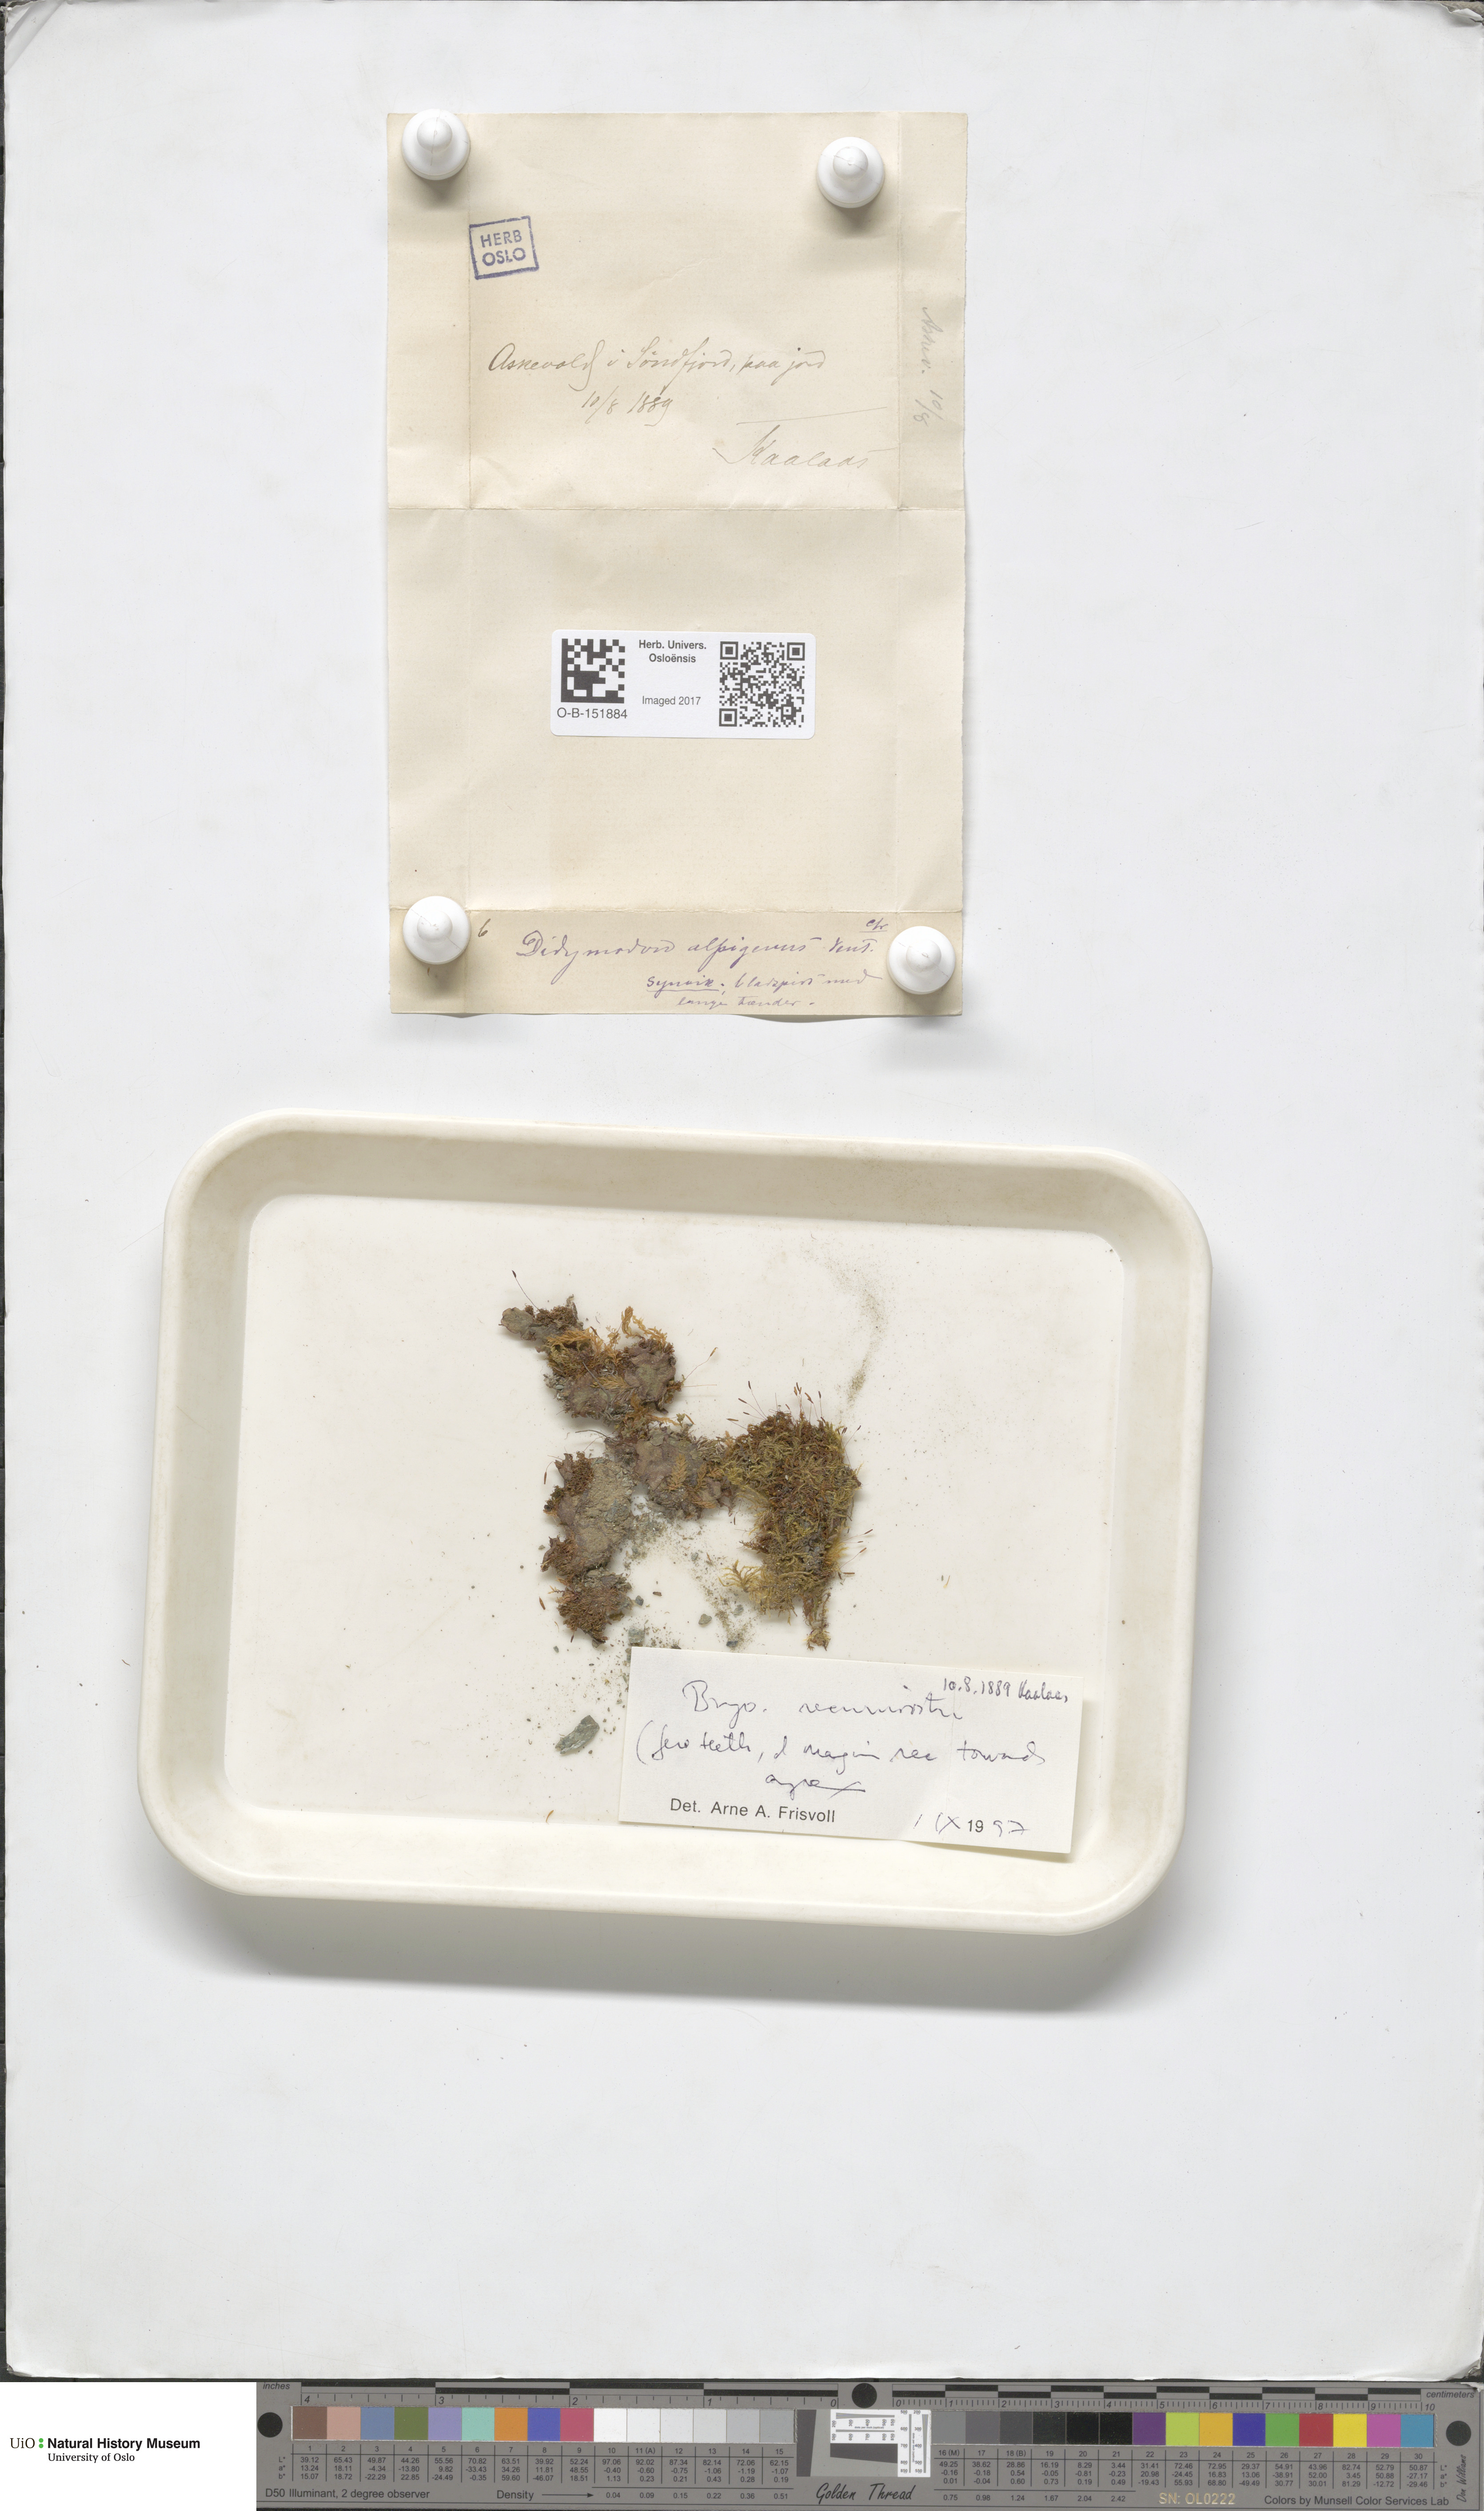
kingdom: Plantae
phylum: Bryophyta
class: Bryopsida
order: Pottiales
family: Pottiaceae
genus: Bryoerythrophyllum
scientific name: Bryoerythrophyllum recurvirostrum
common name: Red beard moss
